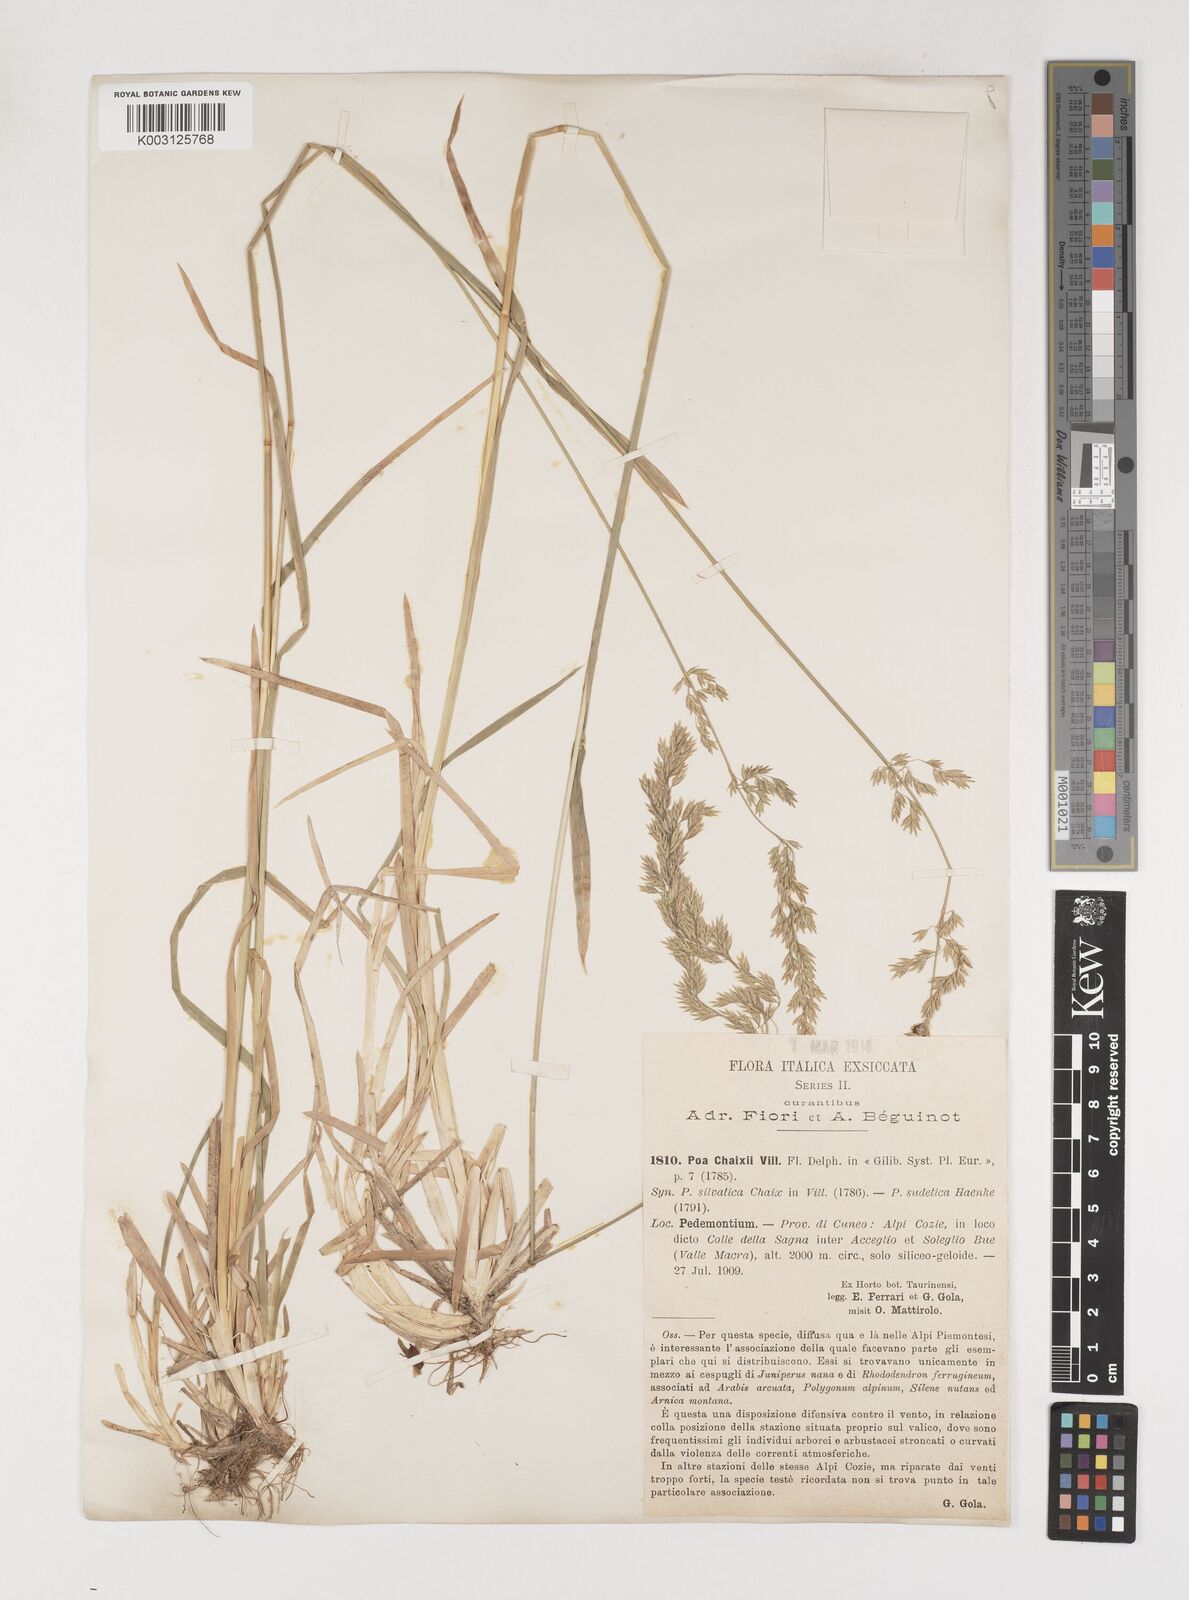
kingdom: Plantae
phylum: Tracheophyta
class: Liliopsida
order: Poales
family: Poaceae
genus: Poa
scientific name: Poa chaixii
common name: Broad-leaved meadow-grass
